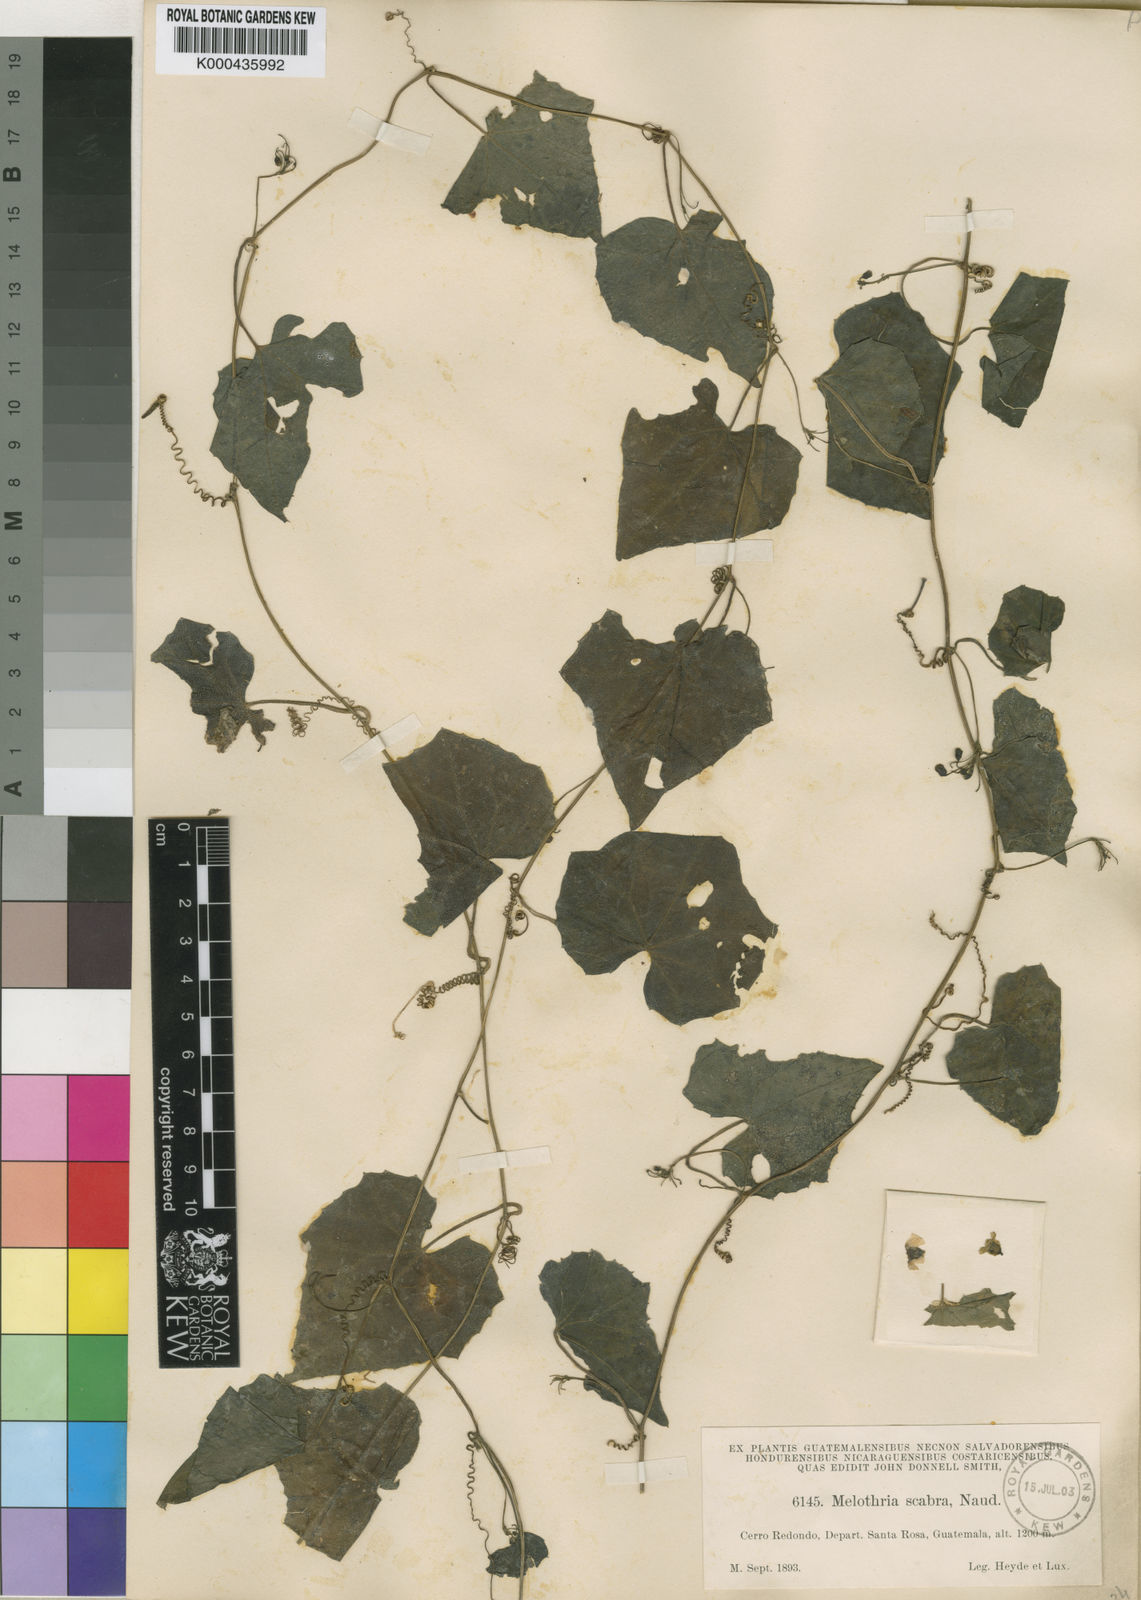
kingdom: Plantae
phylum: Tracheophyta
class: Magnoliopsida
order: Cucurbitales
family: Cucurbitaceae
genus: Melothria
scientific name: Melothria scabra
